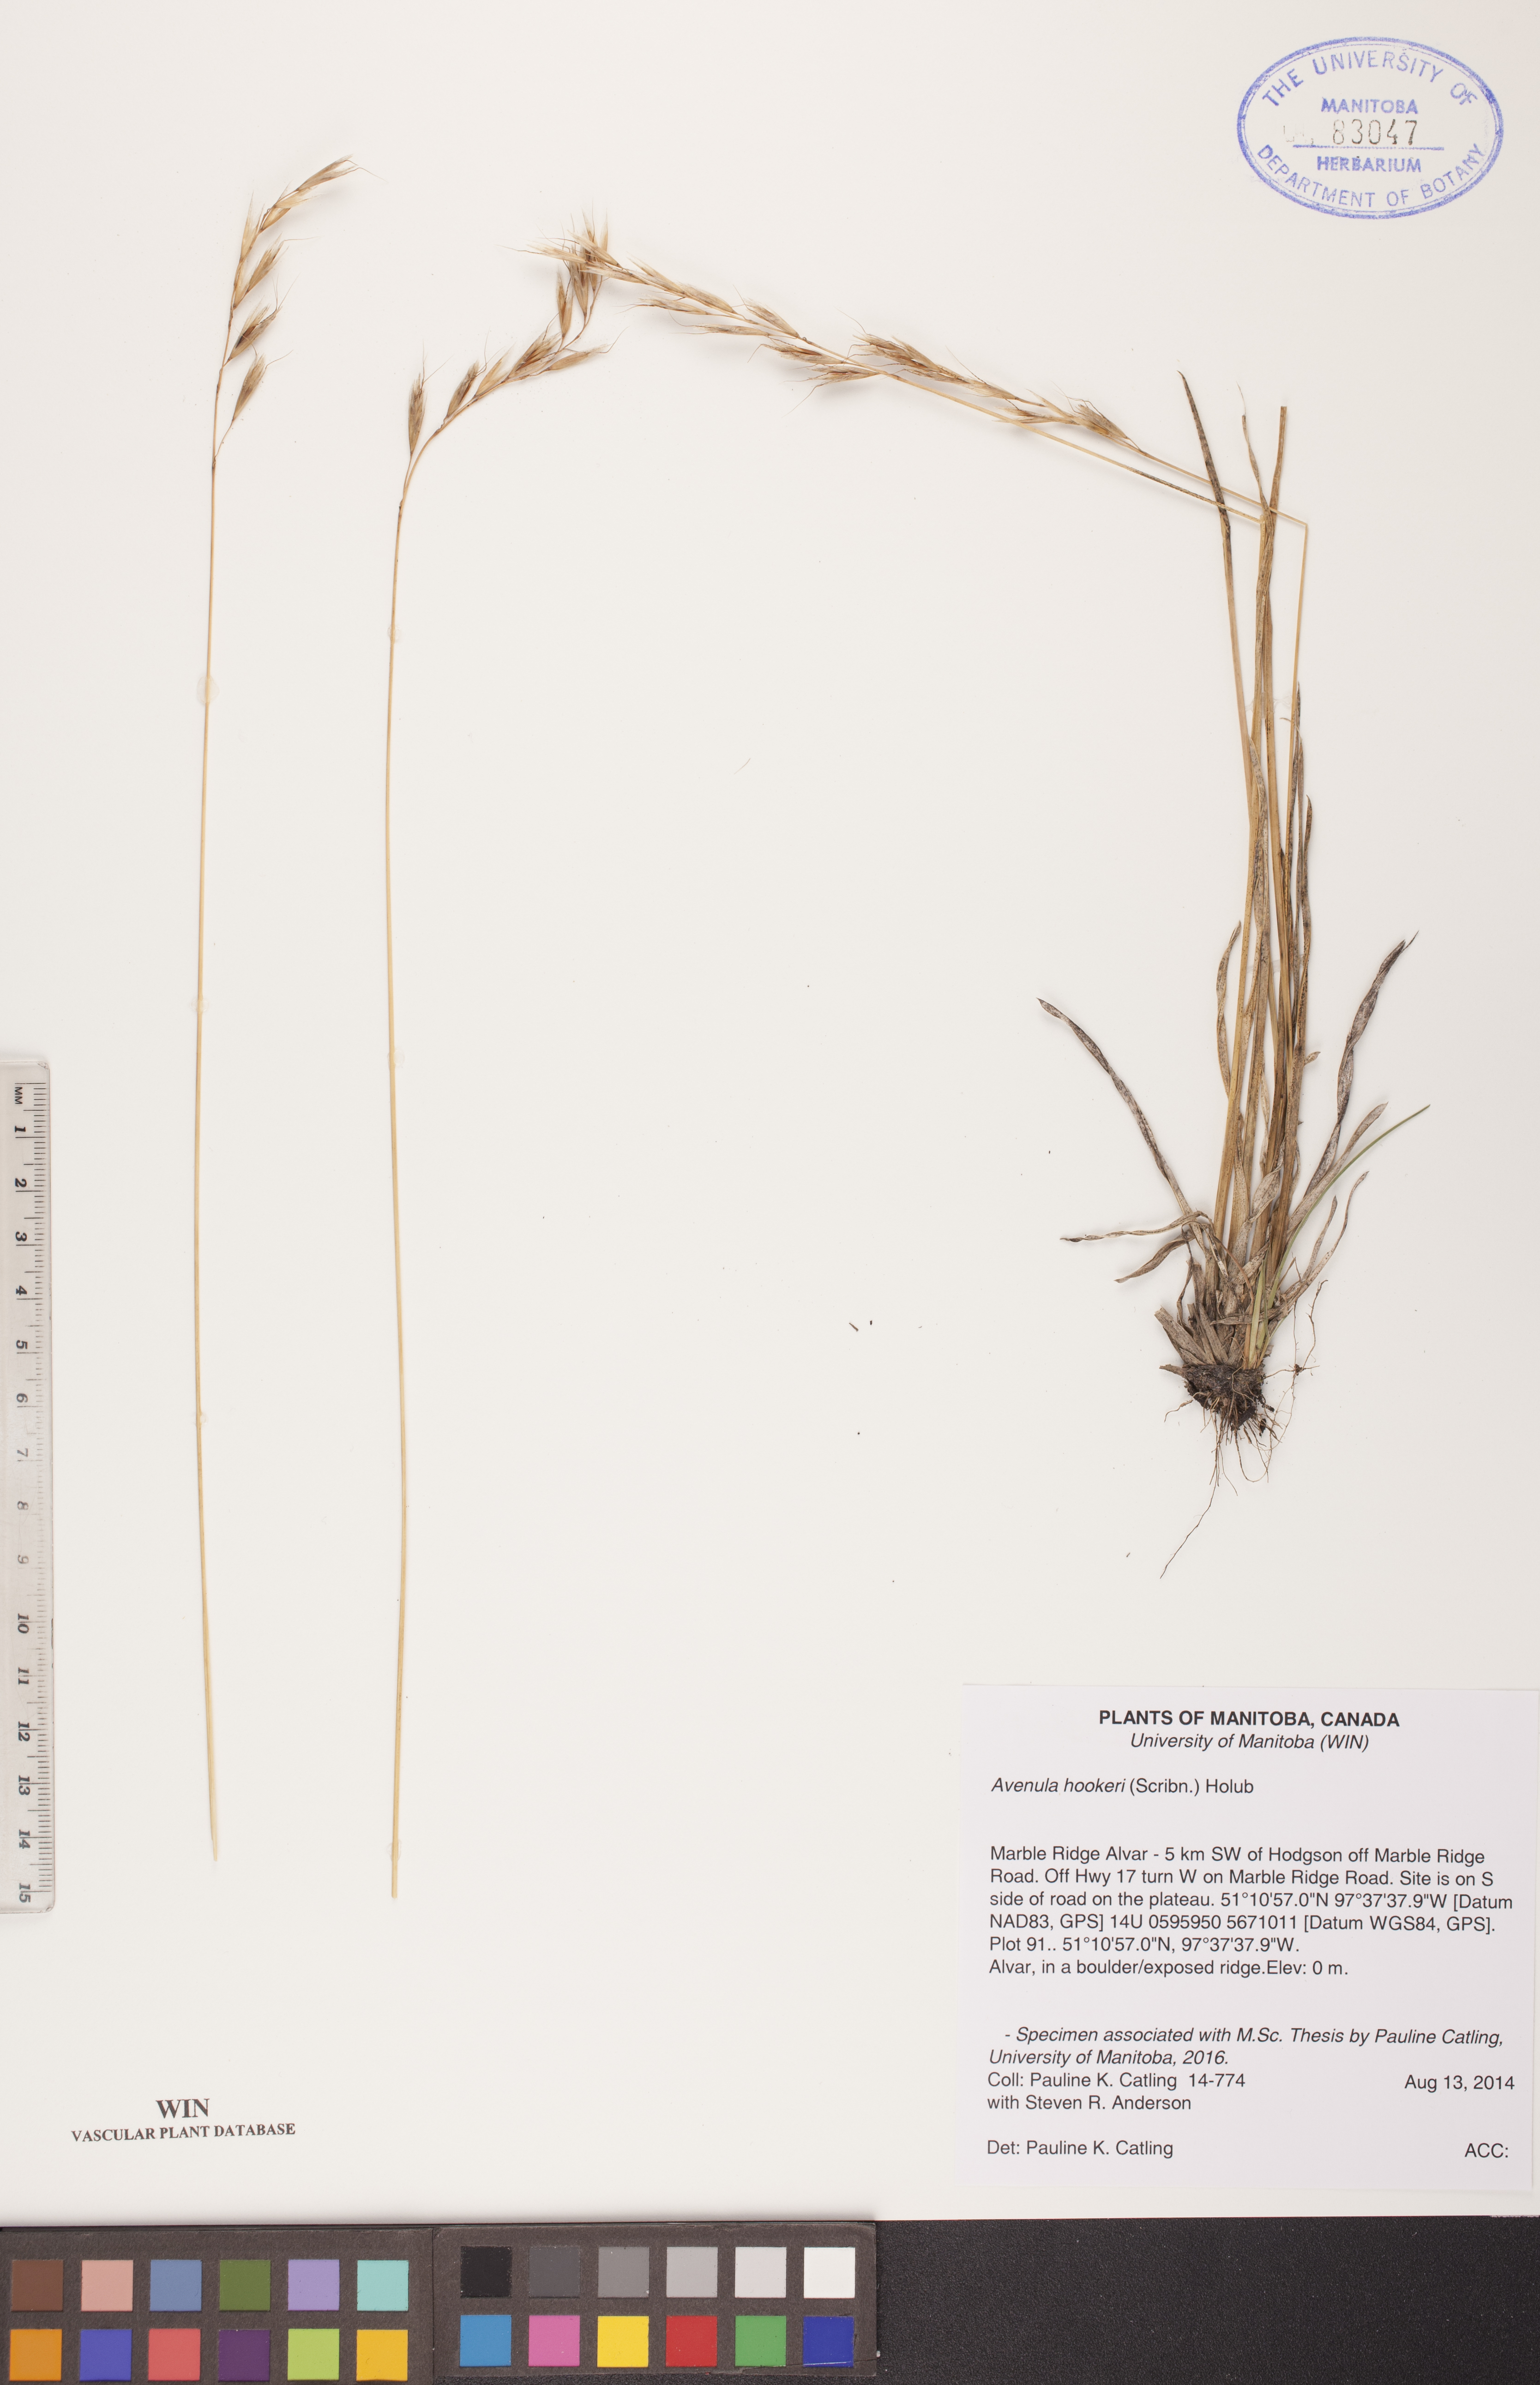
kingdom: Plantae
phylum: Tracheophyta
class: Liliopsida
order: Poales
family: Poaceae
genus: Helictochloa
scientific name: Helictochloa hookeri
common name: Hooker's alpine oatgrass
